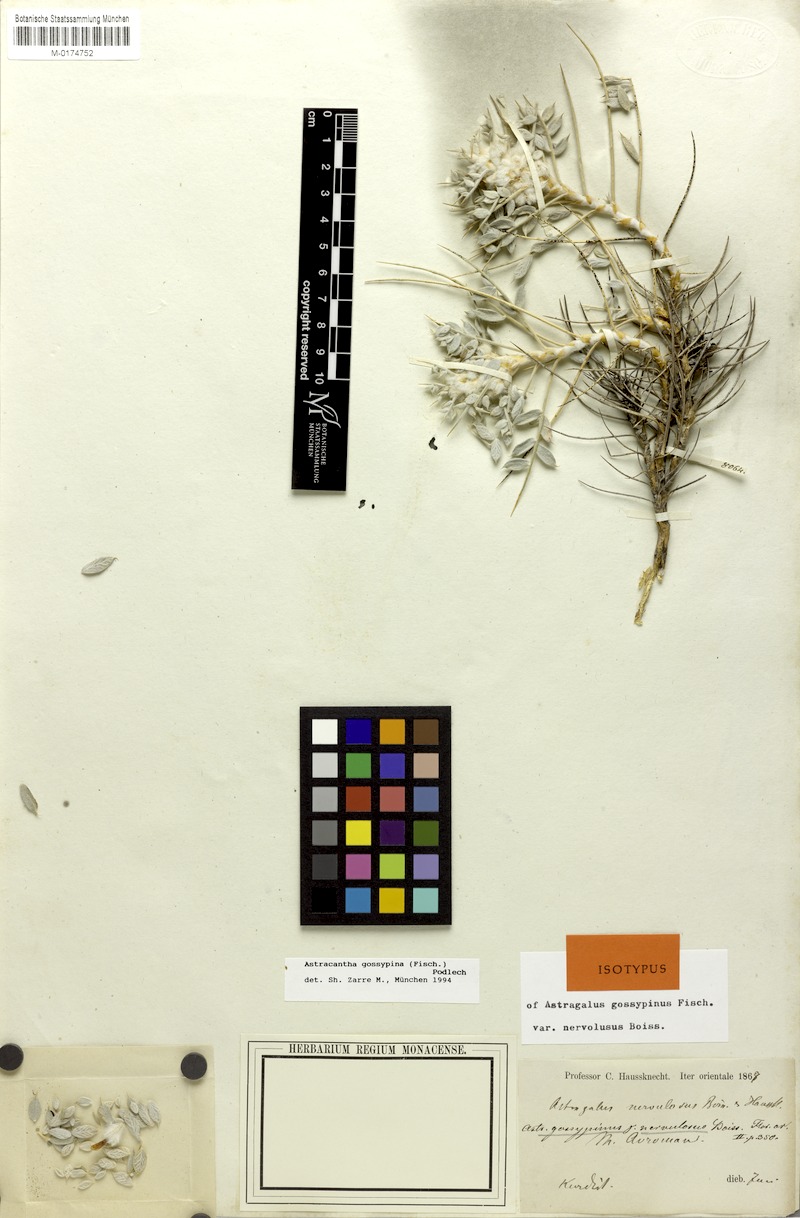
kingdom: Plantae
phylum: Tracheophyta
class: Magnoliopsida
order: Fabales
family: Fabaceae
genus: Astragalus
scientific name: Astragalus gossypinus
